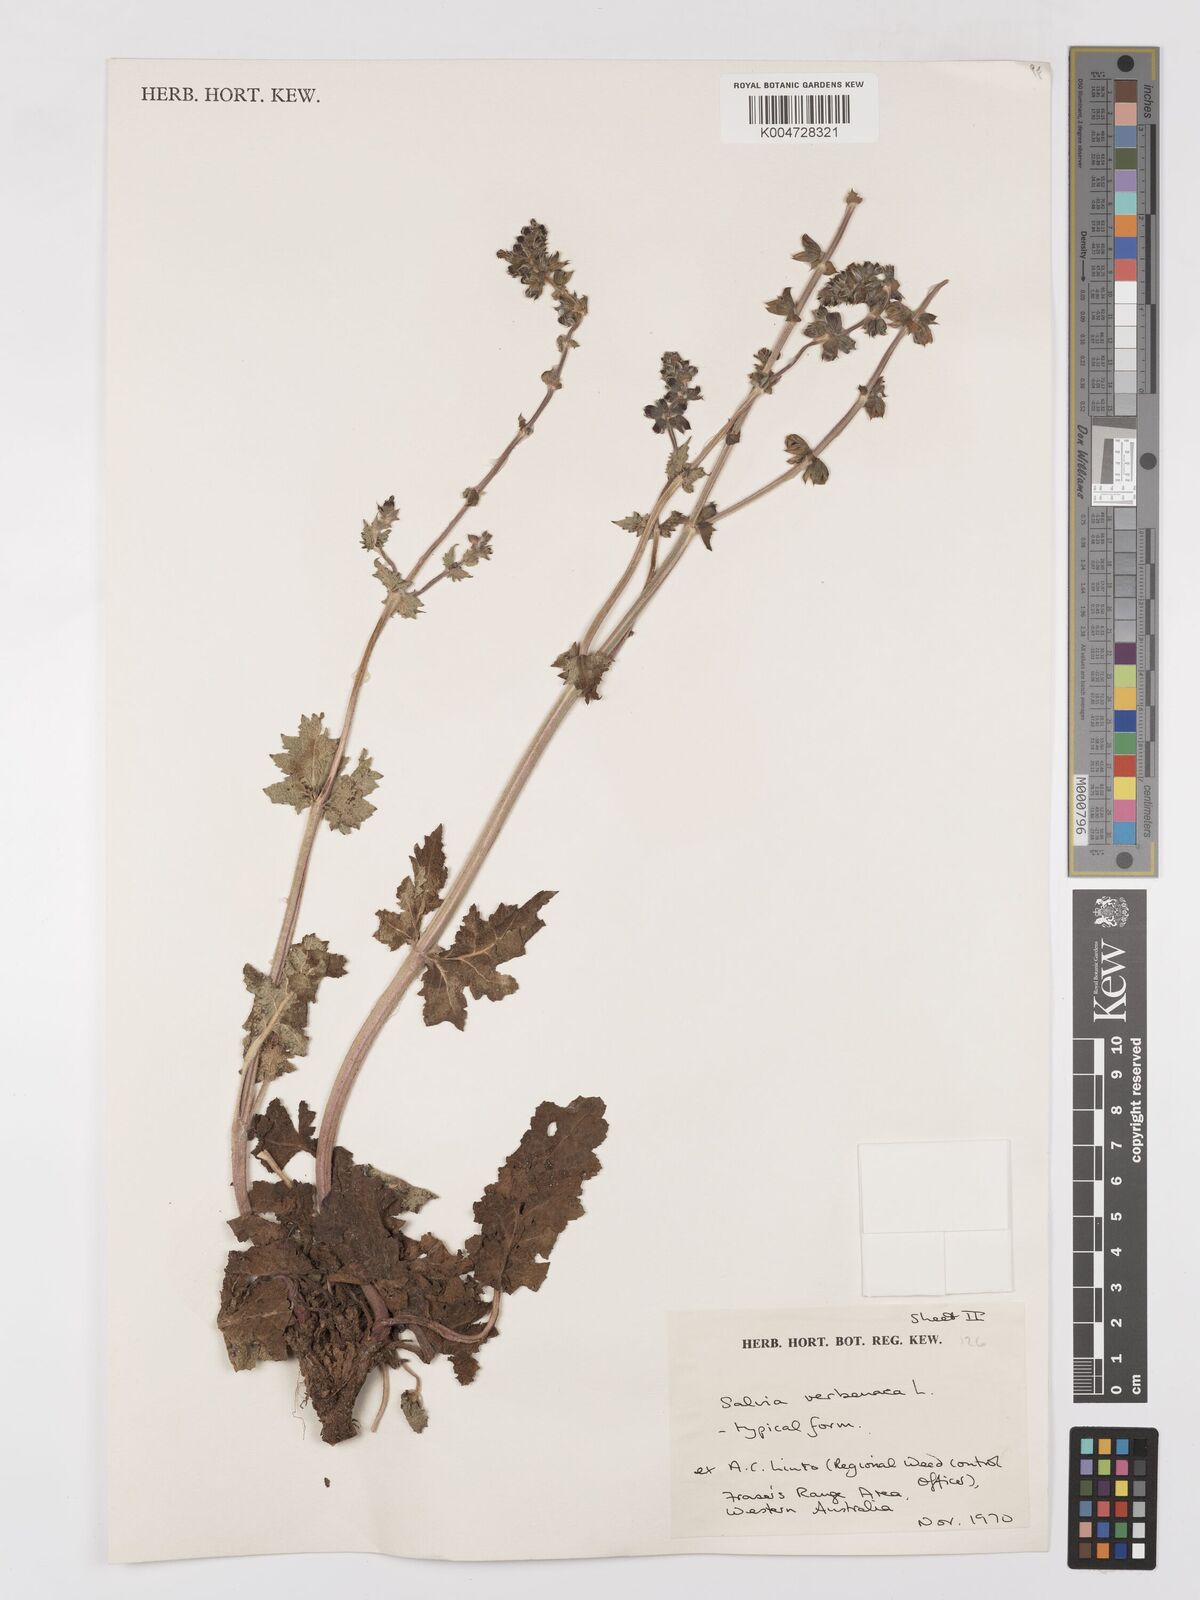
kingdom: Plantae
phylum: Tracheophyta
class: Magnoliopsida
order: Lamiales
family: Lamiaceae
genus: Salvia
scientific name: Salvia verbenaca
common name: Wild clary
